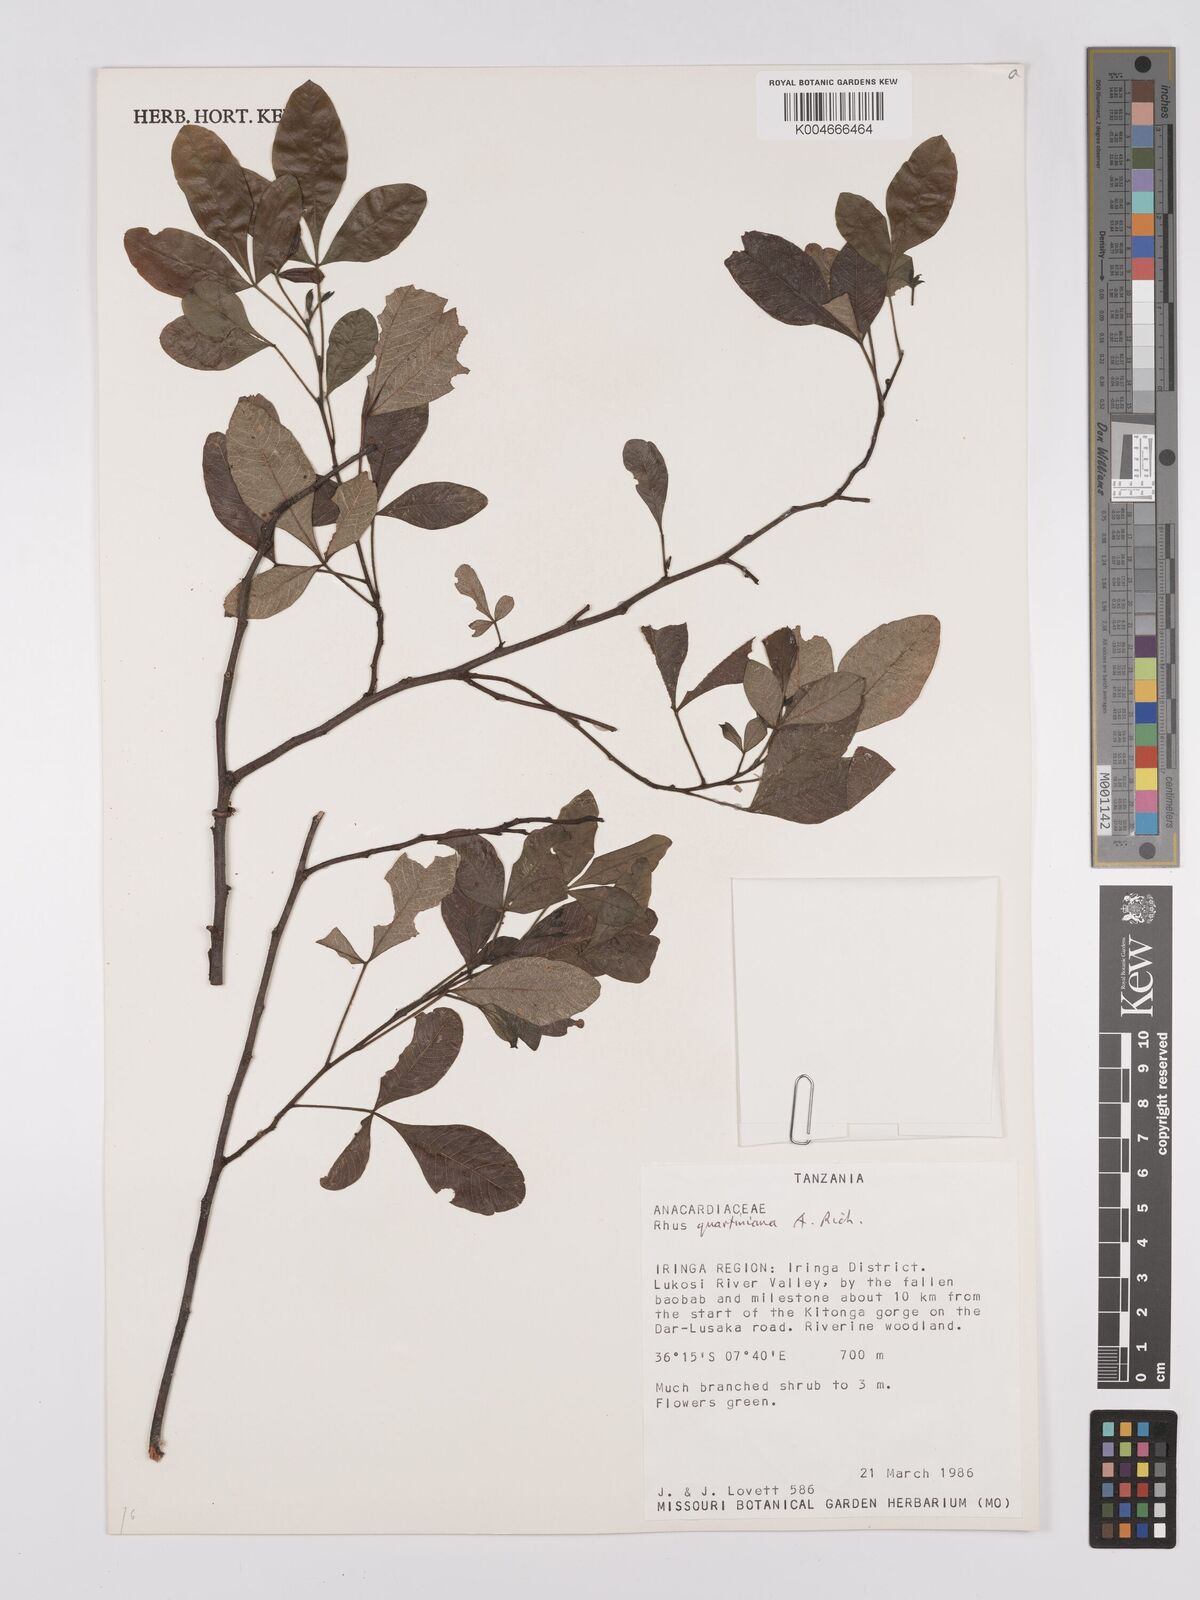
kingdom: Plantae
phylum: Tracheophyta
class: Magnoliopsida
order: Sapindales
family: Anacardiaceae
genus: Searsia
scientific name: Searsia quartiniana
